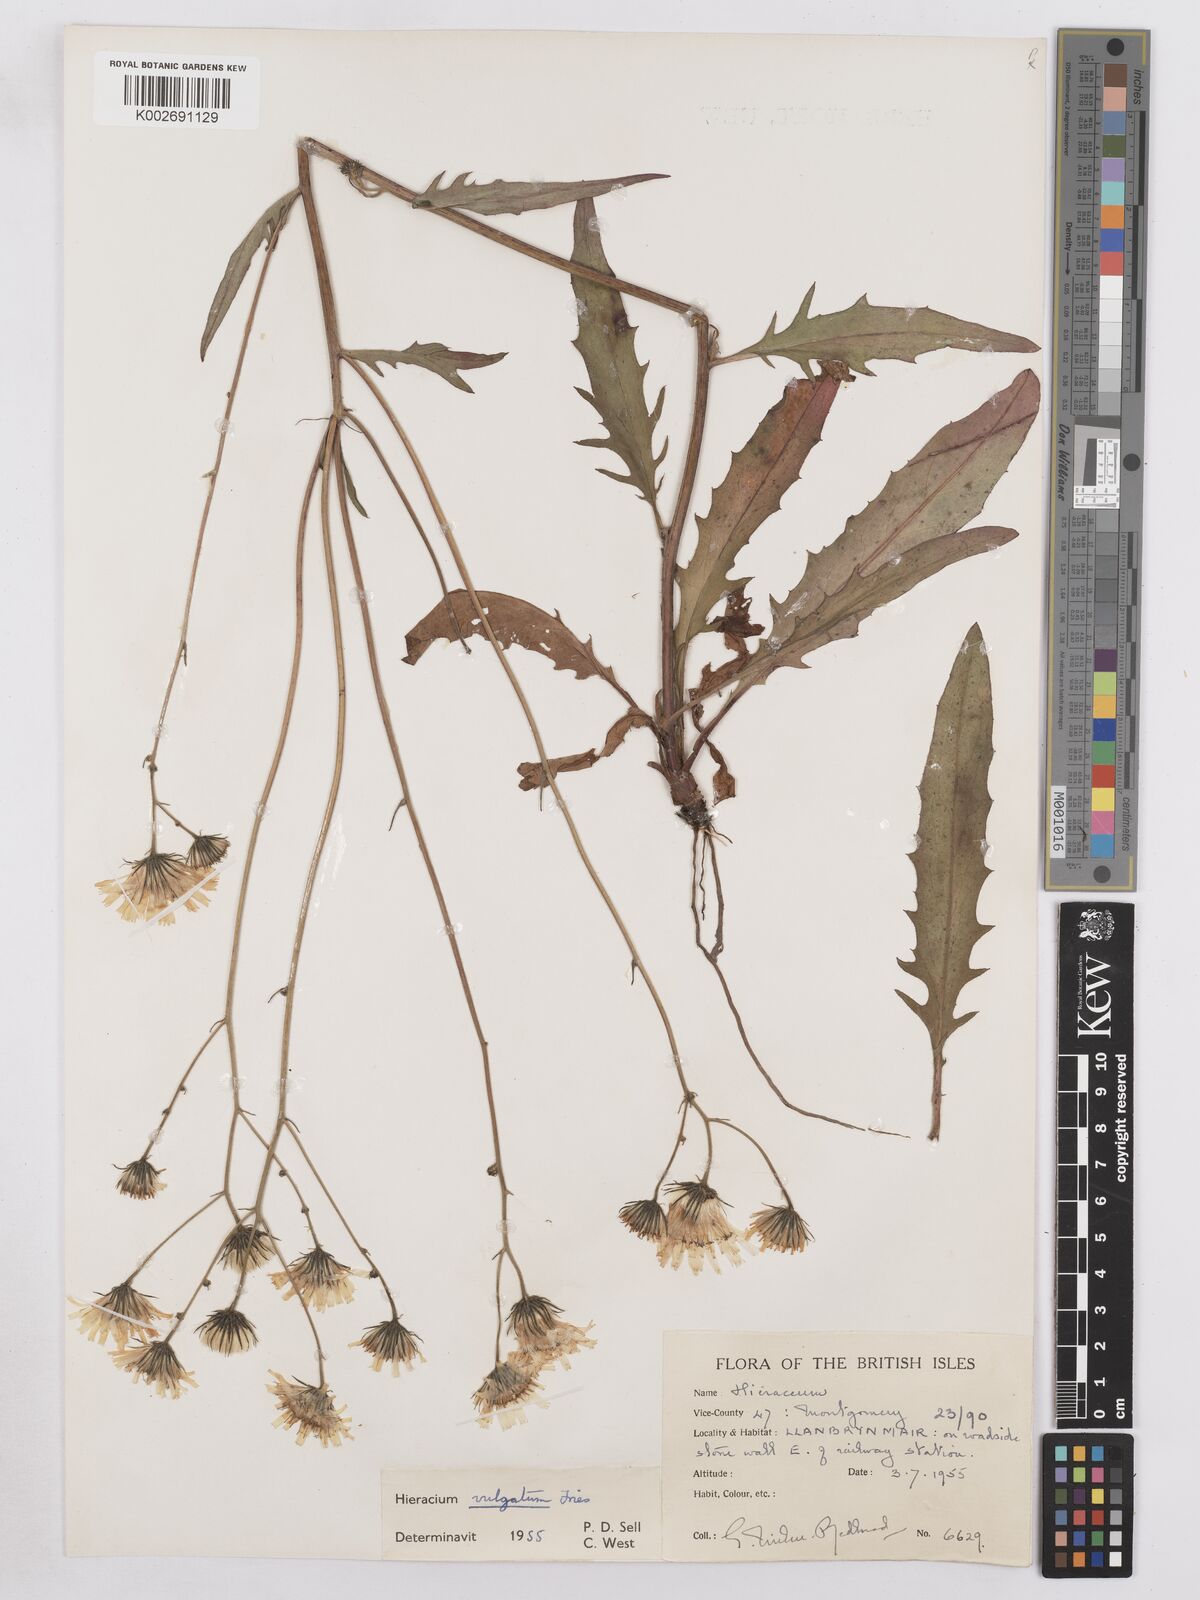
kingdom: Plantae
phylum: Tracheophyta
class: Magnoliopsida
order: Asterales
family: Asteraceae
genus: Hieracium
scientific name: Hieracium lachenalii
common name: Common hawkweed
